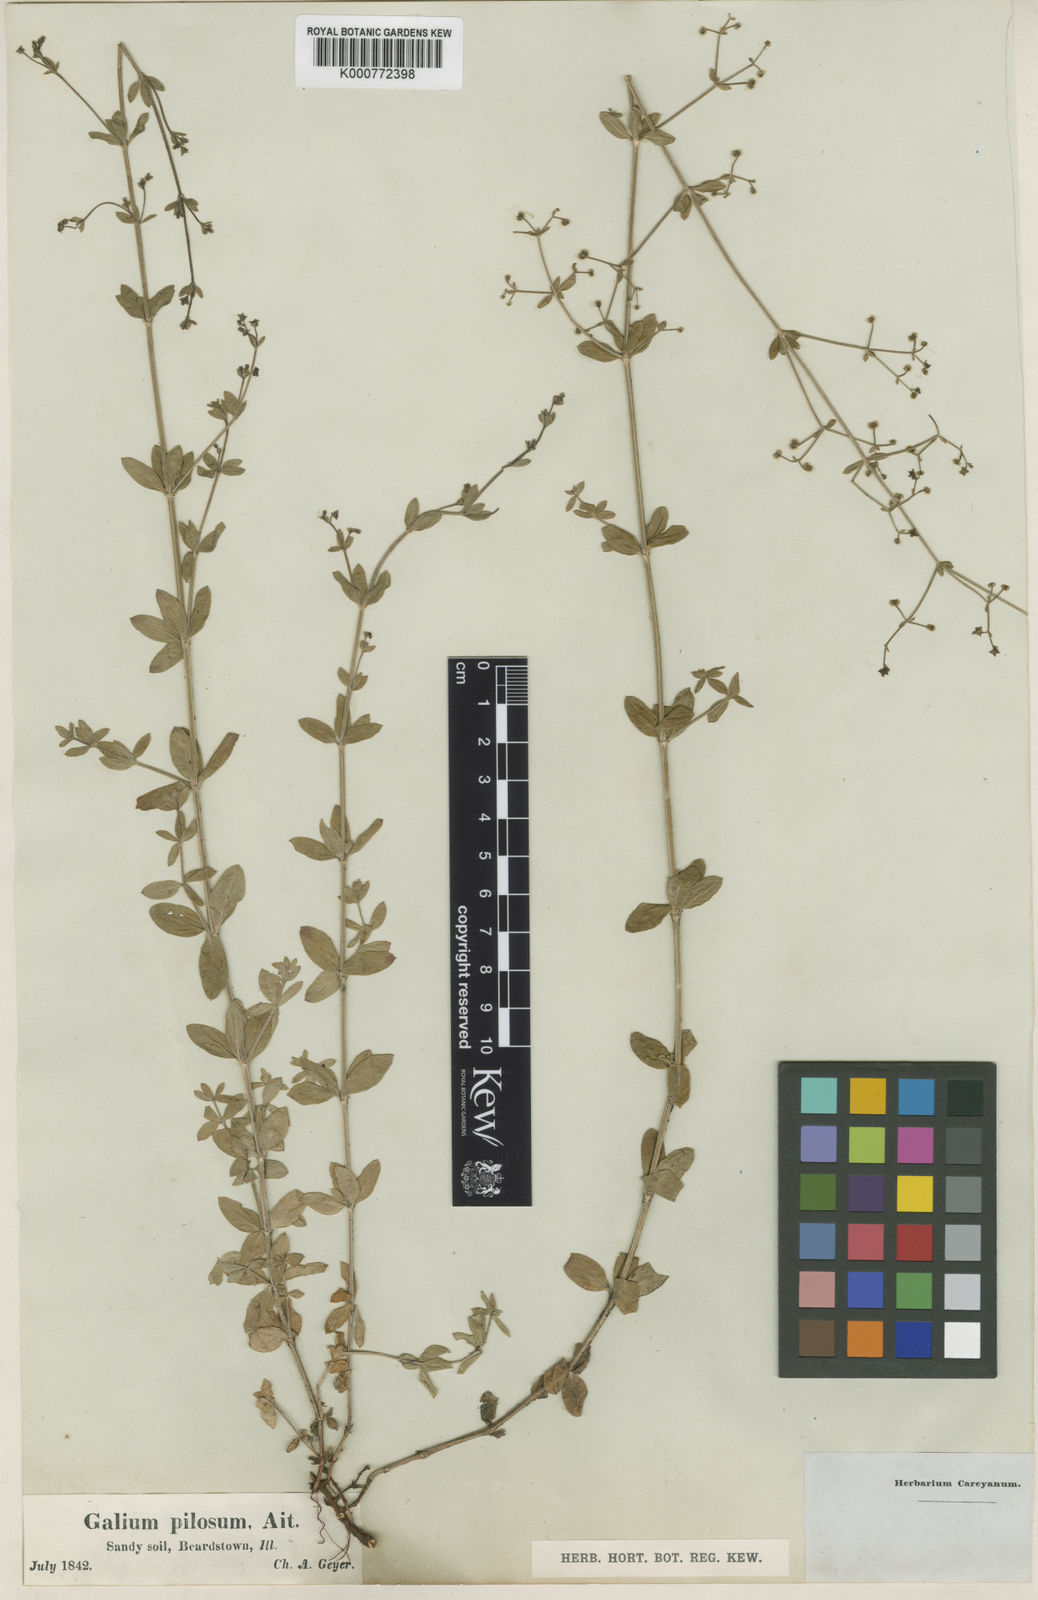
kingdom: Plantae
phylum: Tracheophyta
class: Magnoliopsida
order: Gentianales
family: Rubiaceae
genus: Galium
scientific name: Galium pilosum
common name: Hairy bedstraw
